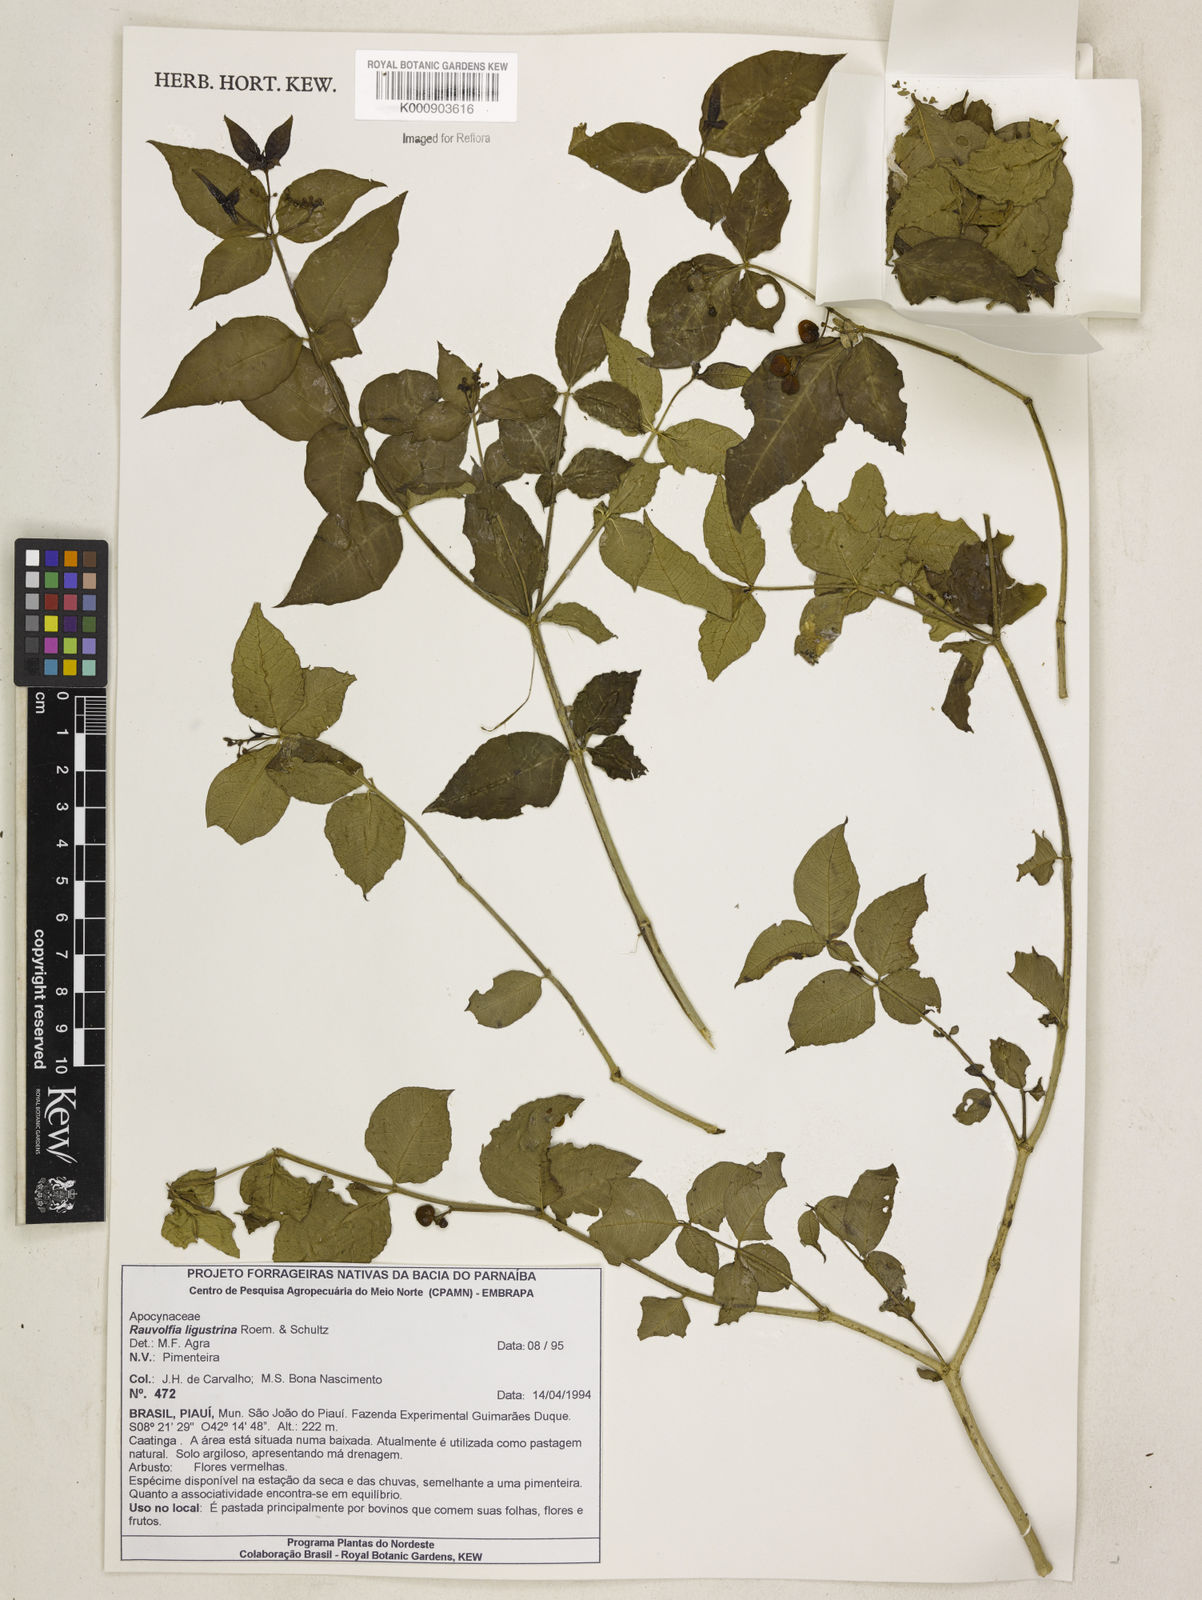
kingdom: Plantae
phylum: Tracheophyta
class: Magnoliopsida
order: Gentianales
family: Apocynaceae
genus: Rauvolfia
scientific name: Rauvolfia ligustrina
